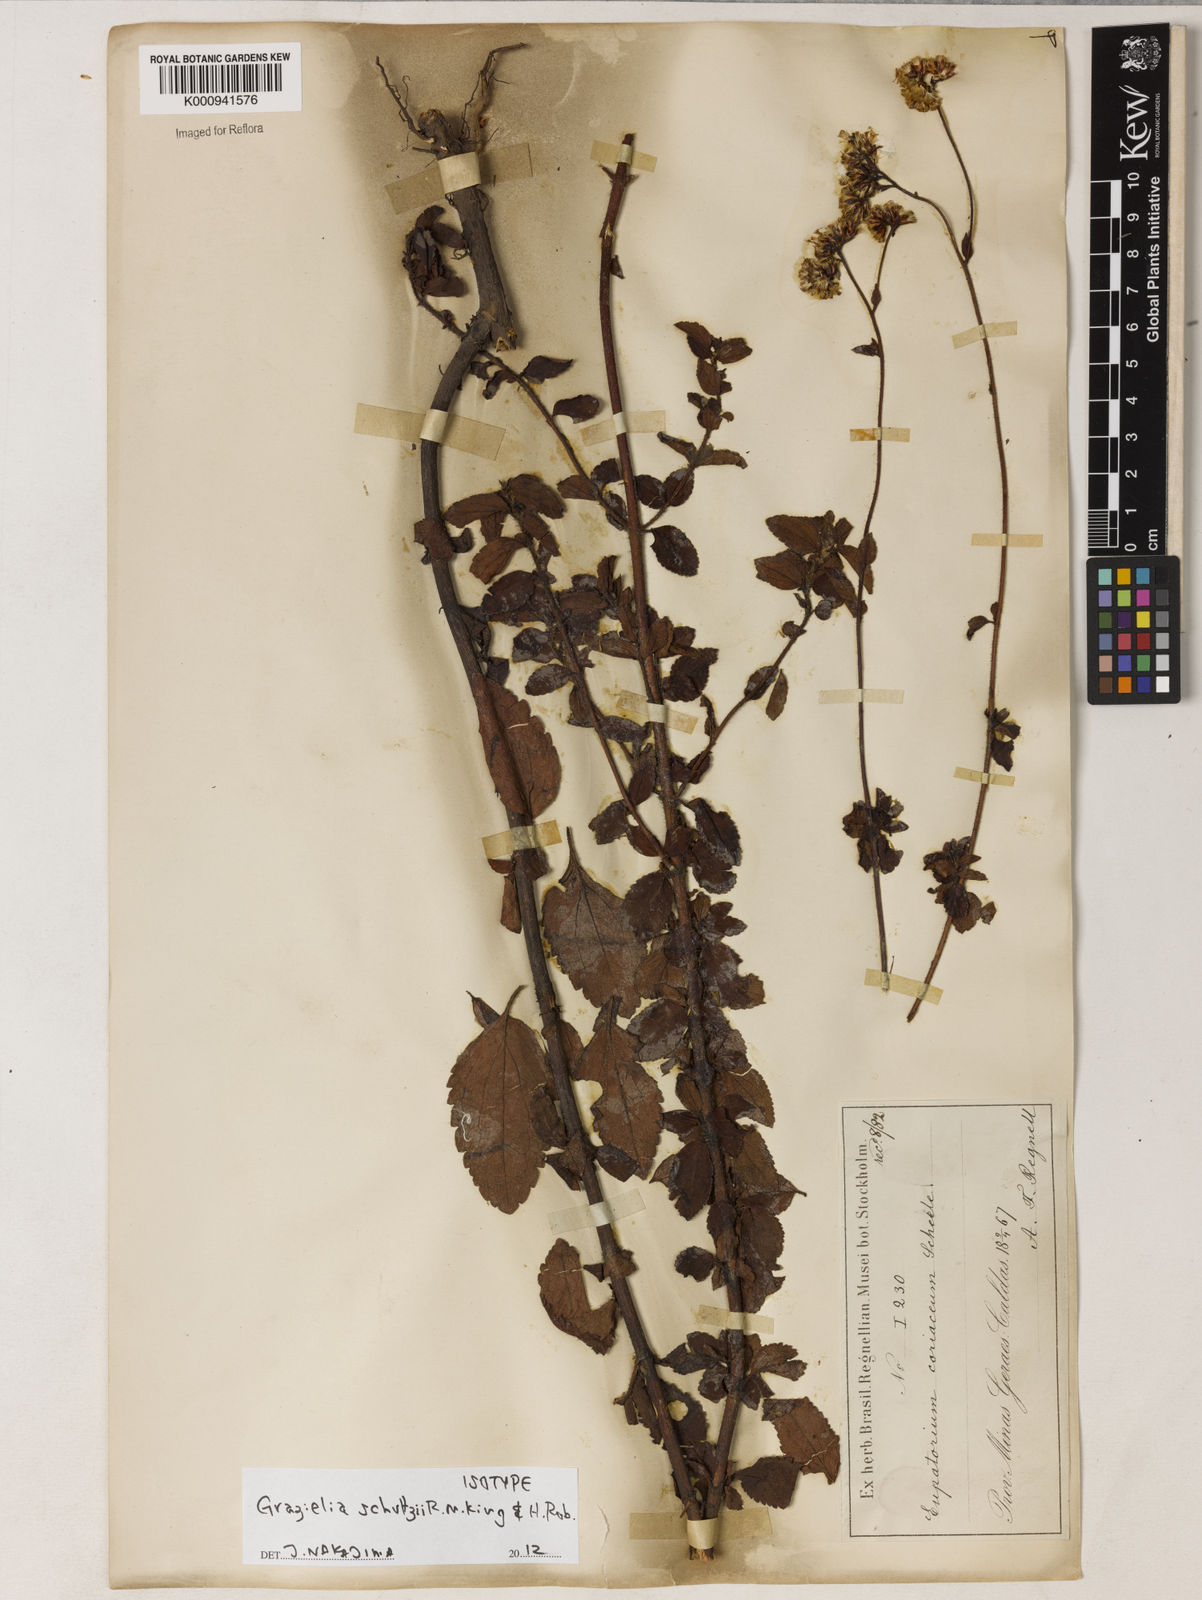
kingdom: Plantae
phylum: Tracheophyta
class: Magnoliopsida
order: Asterales
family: Asteraceae
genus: Grazielia
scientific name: Grazielia schultzii
